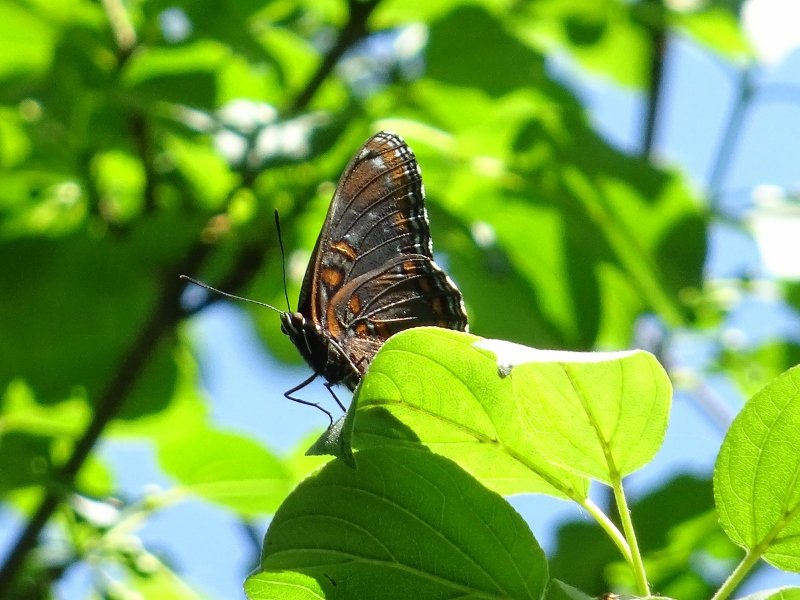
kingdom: Animalia
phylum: Arthropoda
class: Insecta
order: Lepidoptera
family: Nymphalidae
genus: Limenitis
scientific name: Limenitis astyanax
